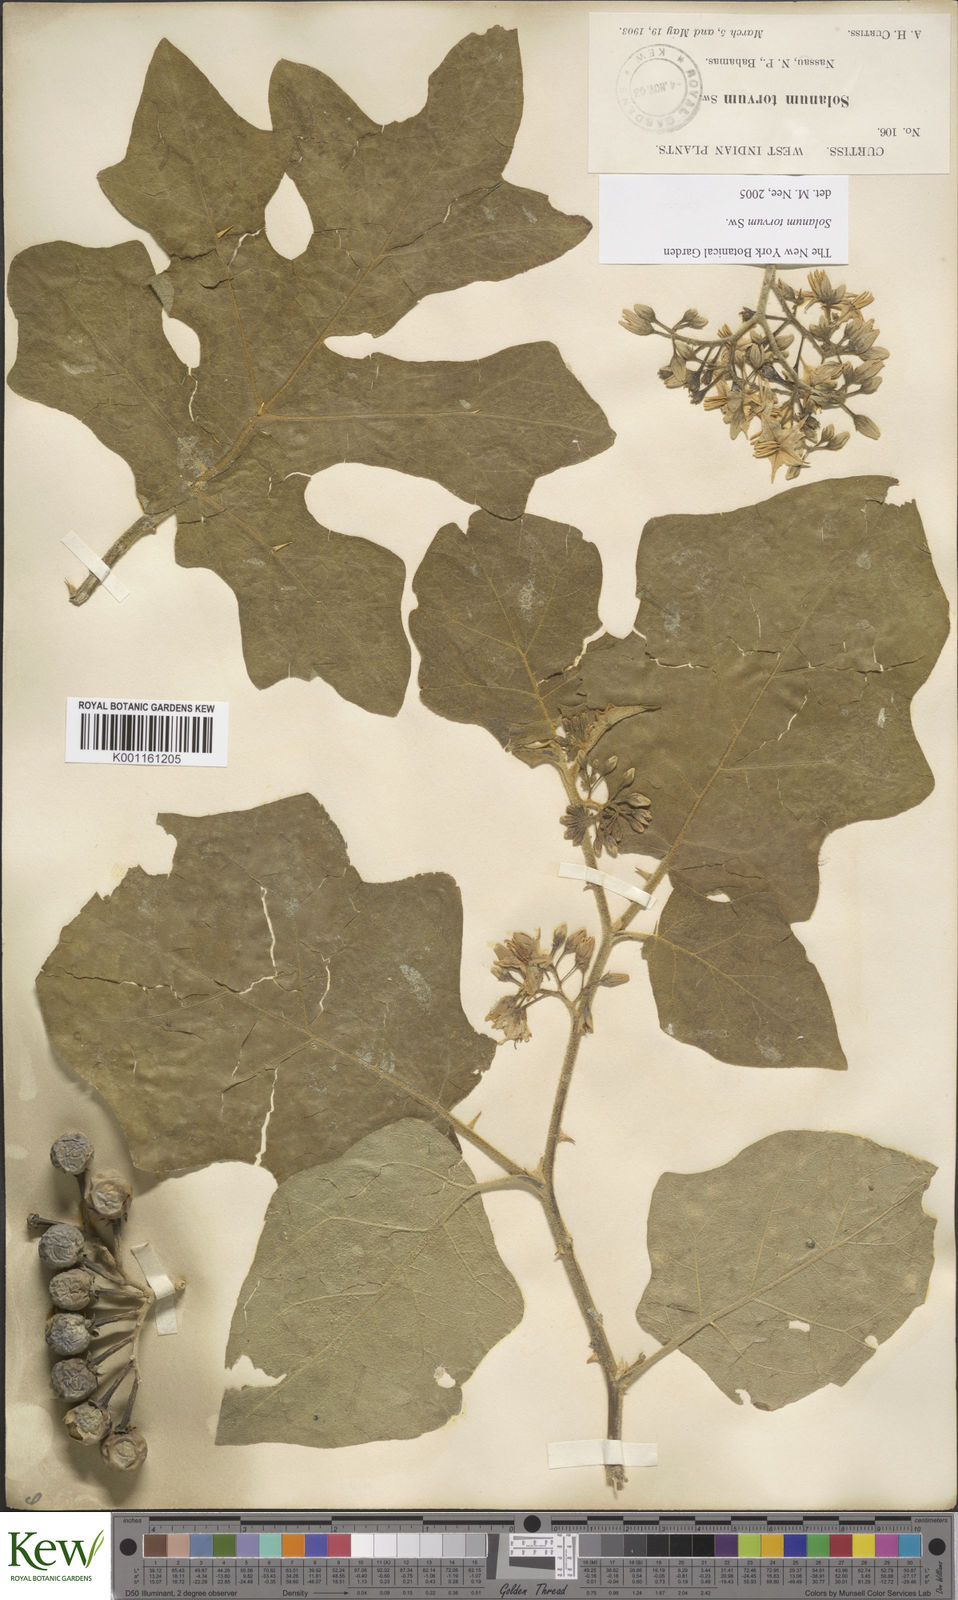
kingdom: Plantae
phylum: Tracheophyta
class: Magnoliopsida
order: Solanales
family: Solanaceae
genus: Solanum
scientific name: Solanum torvum
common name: Turkey berry
